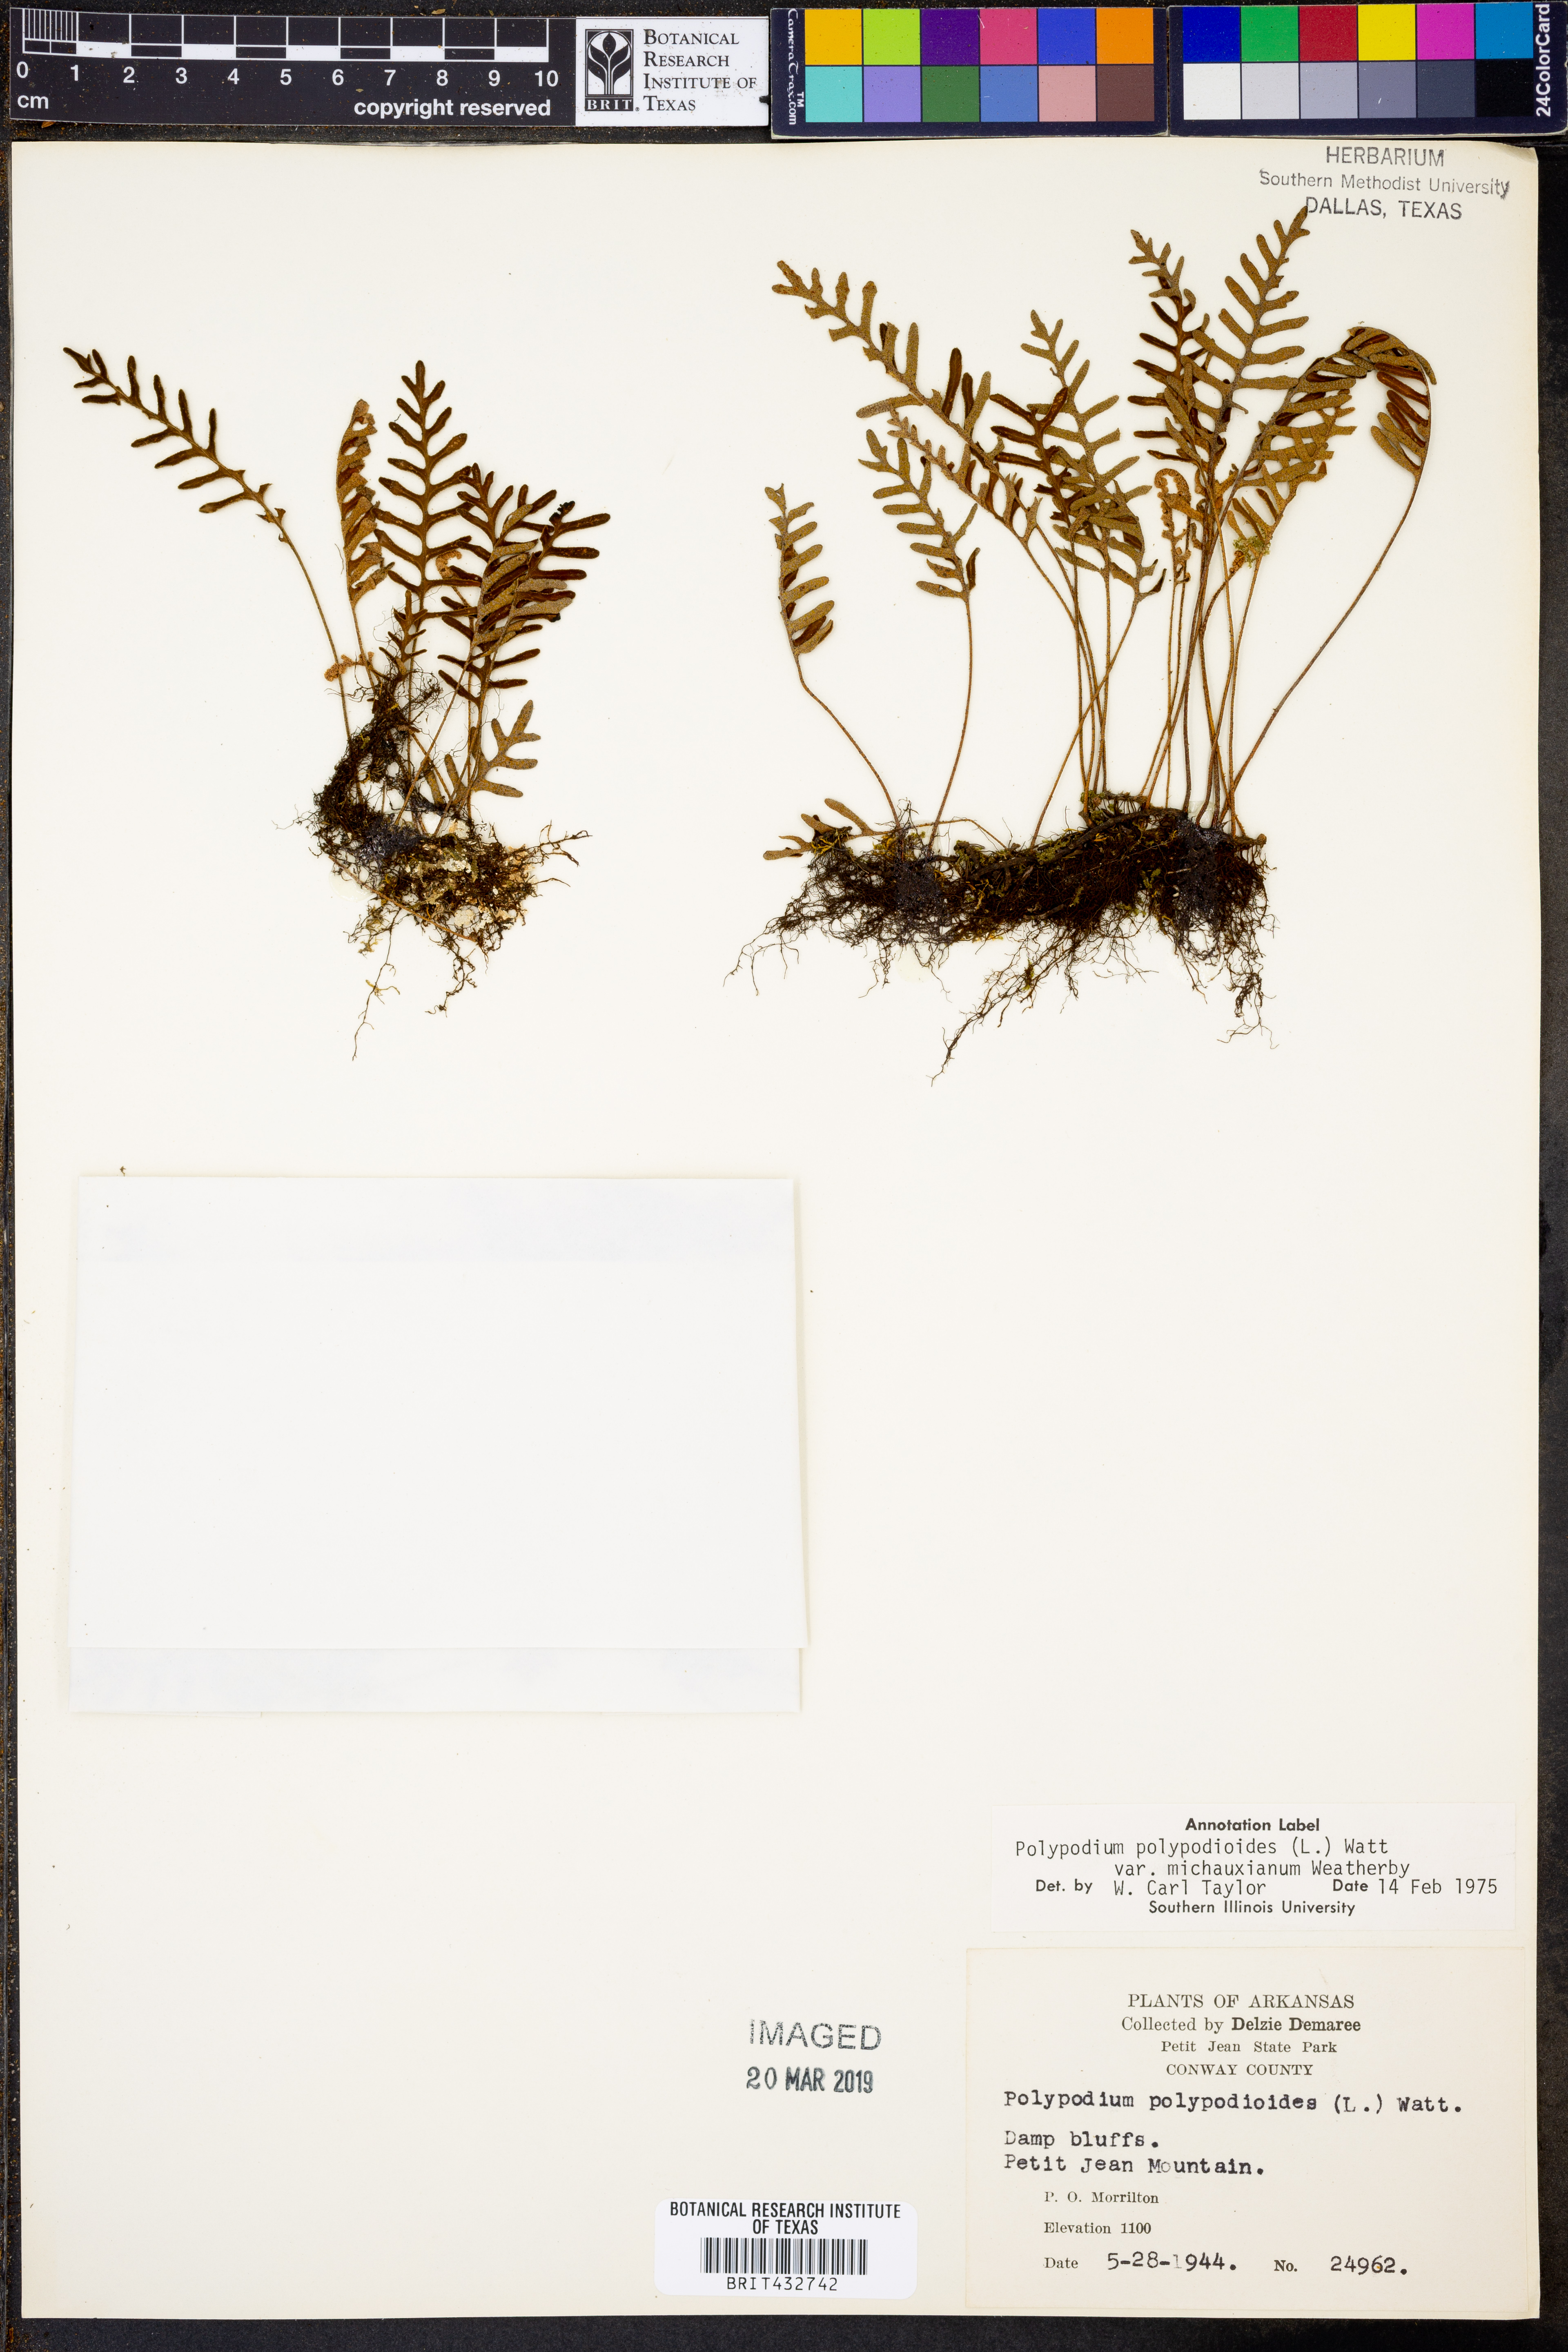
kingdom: Plantae
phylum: Tracheophyta
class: Polypodiopsida
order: Polypodiales
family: Polypodiaceae
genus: Pleopeltis
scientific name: Pleopeltis michauxiana
